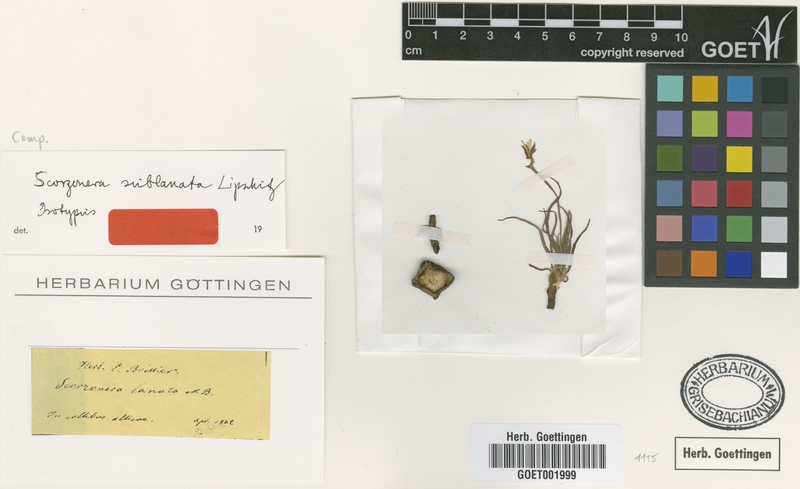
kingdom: Plantae
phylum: Tracheophyta
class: Magnoliopsida
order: Asterales
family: Asteraceae
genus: Bocquetia
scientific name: Bocquetia sublanata
